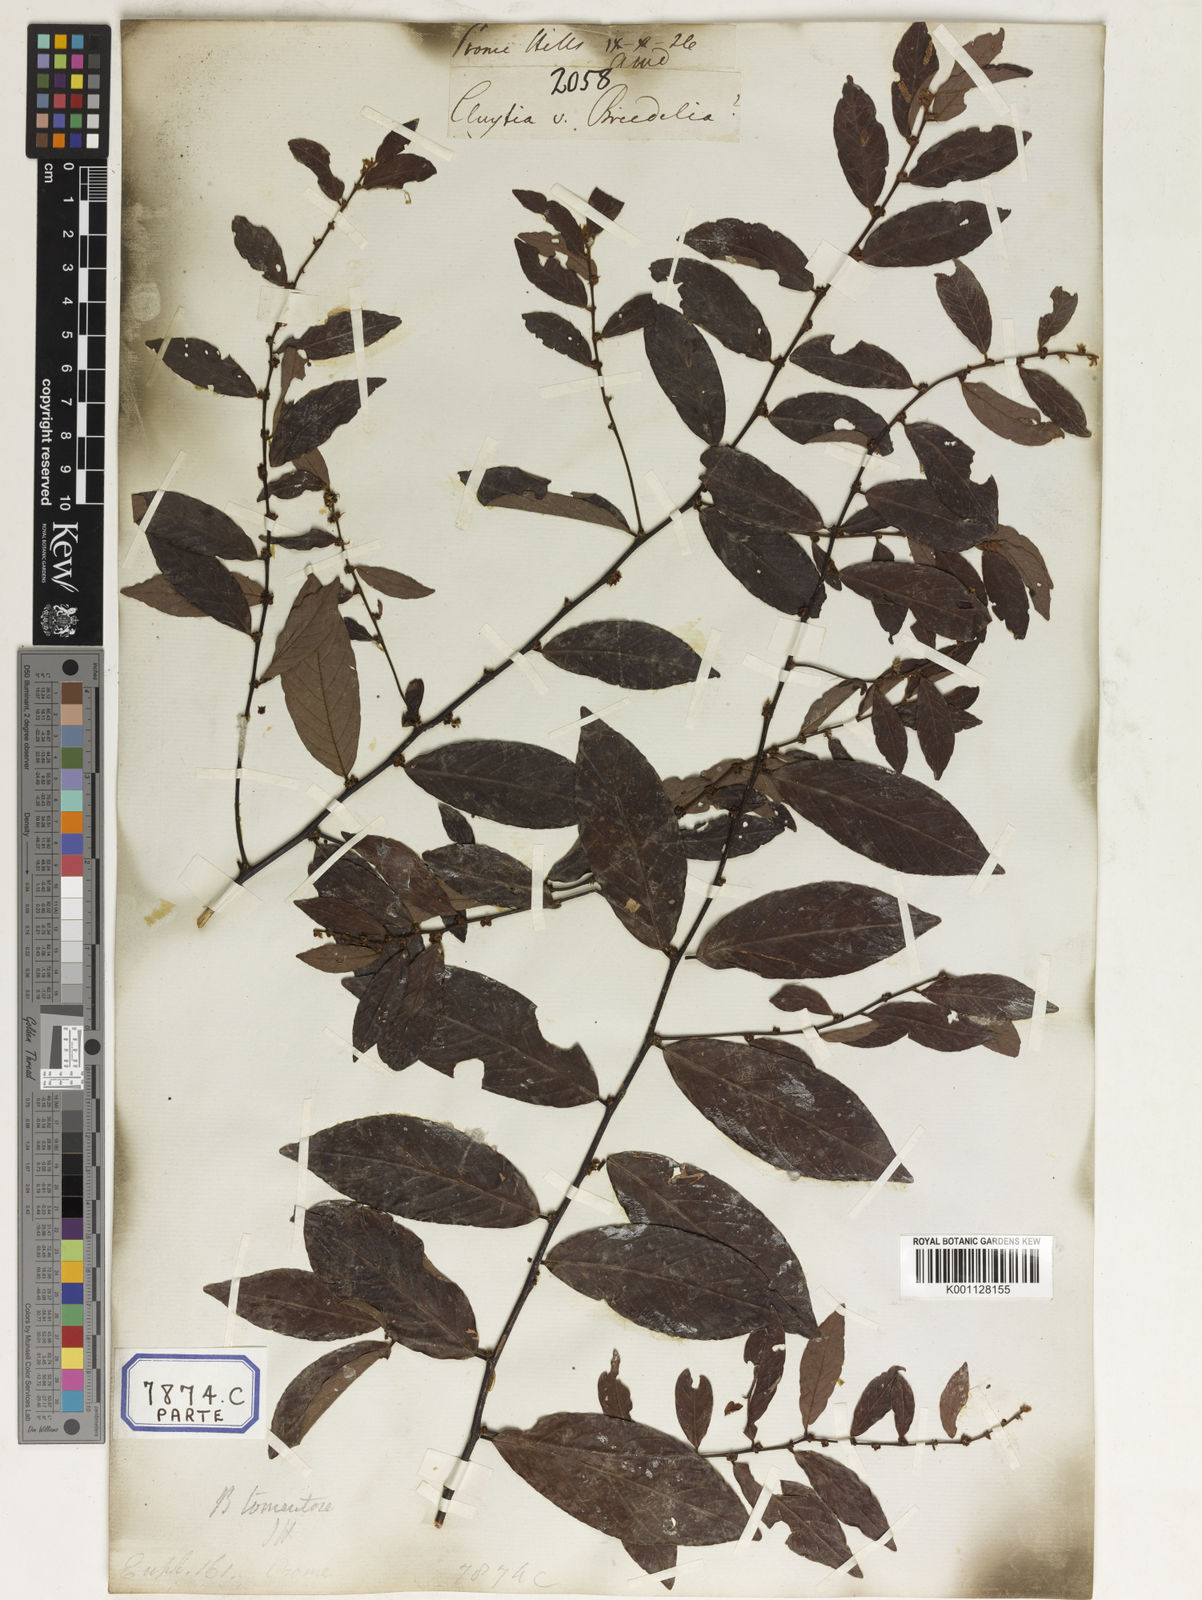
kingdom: Plantae
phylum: Tracheophyta
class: Magnoliopsida
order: Malpighiales
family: Euphorbiaceae
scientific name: Euphorbiaceae
